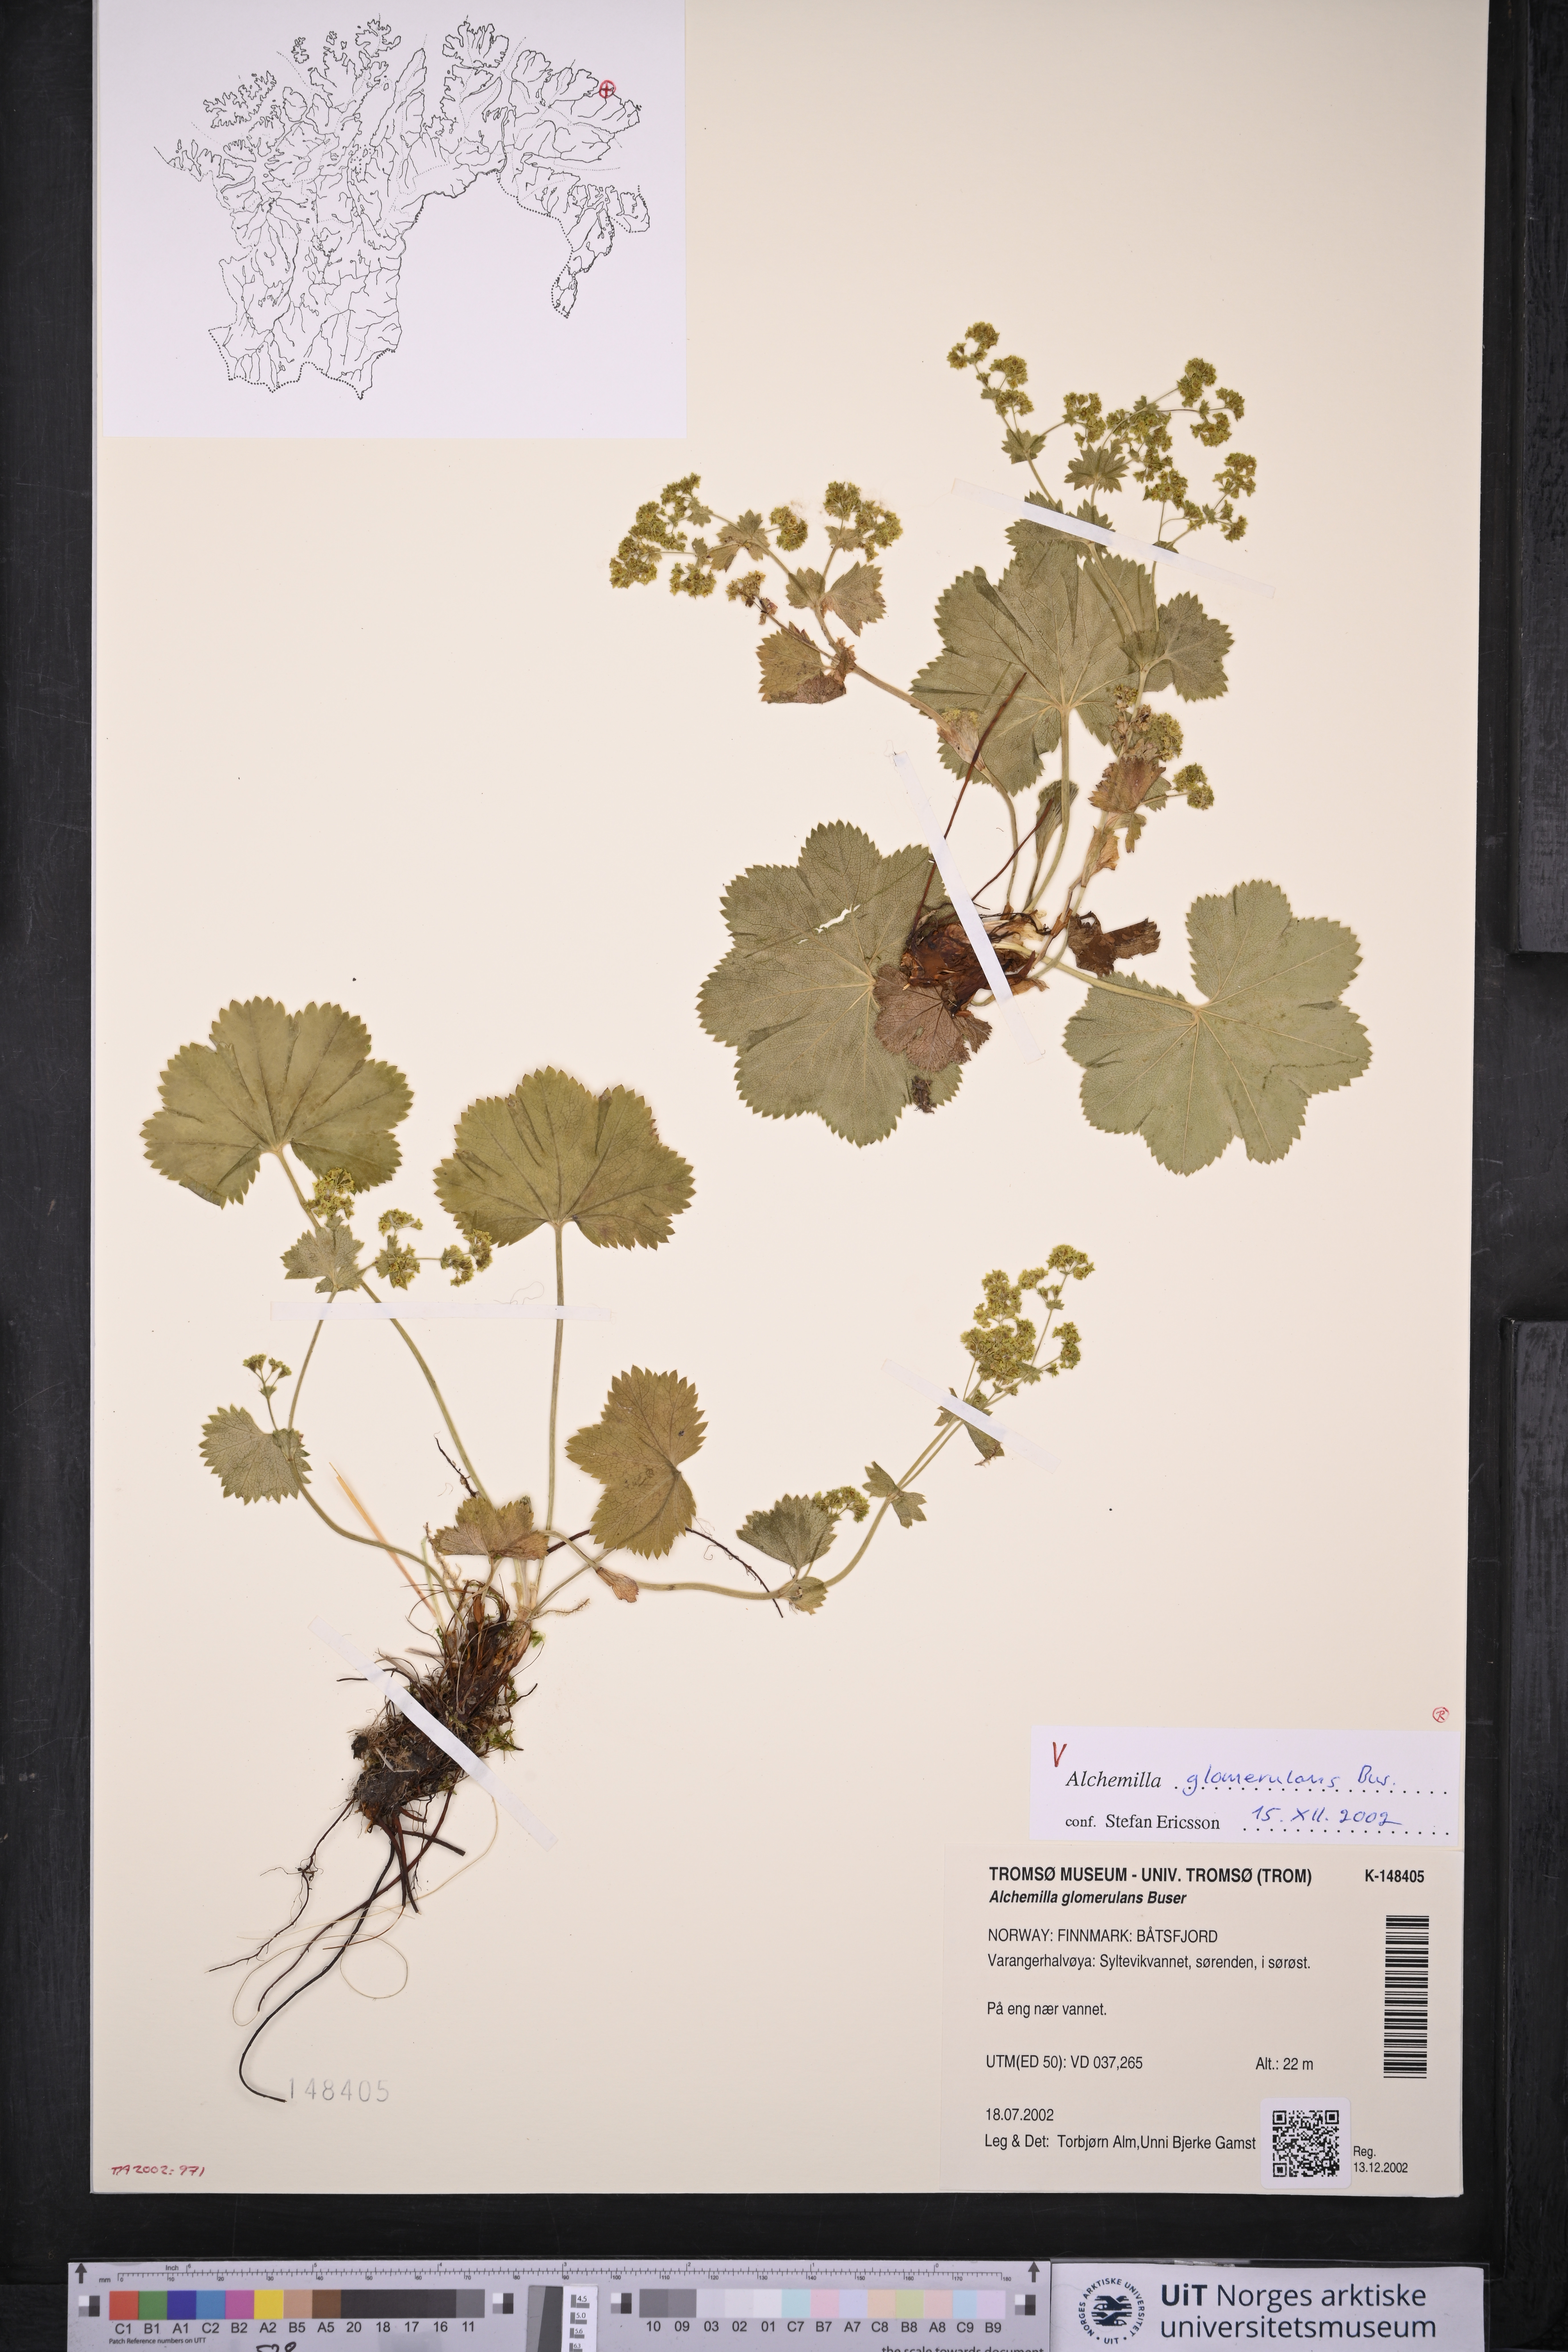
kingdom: Plantae
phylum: Tracheophyta
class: Magnoliopsida
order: Rosales
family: Rosaceae
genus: Alchemilla
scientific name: Alchemilla glomerulans
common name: Clustered lady's mantle
